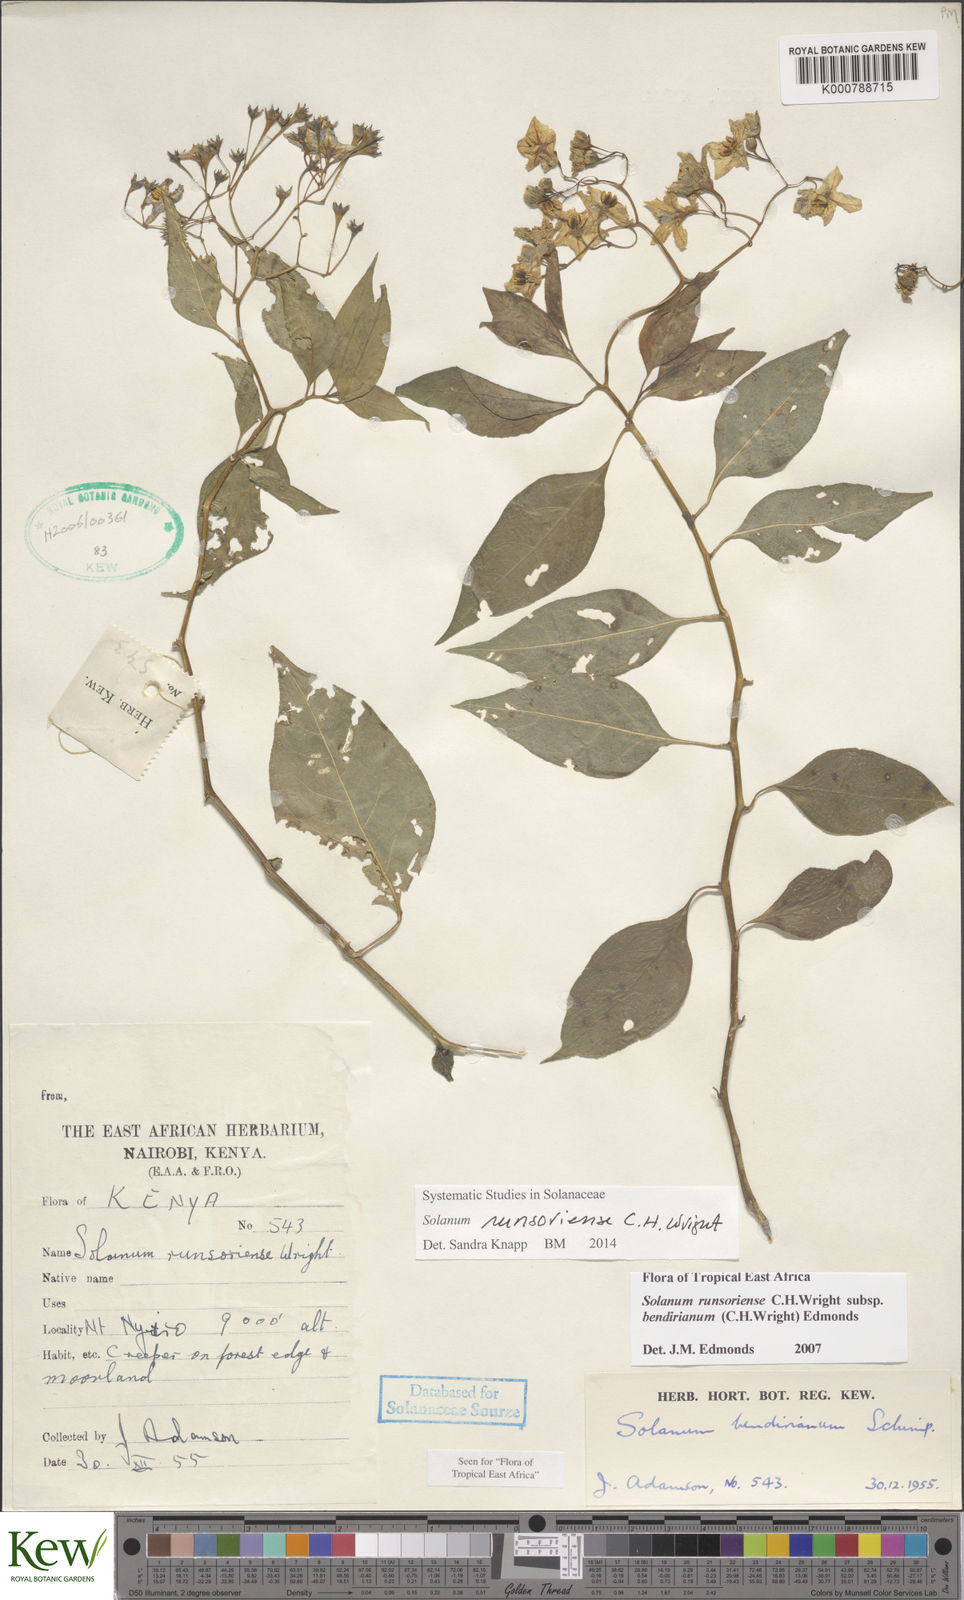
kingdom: Plantae
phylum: Tracheophyta
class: Magnoliopsida
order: Solanales
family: Solanaceae
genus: Solanum
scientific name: Solanum runsoriense
